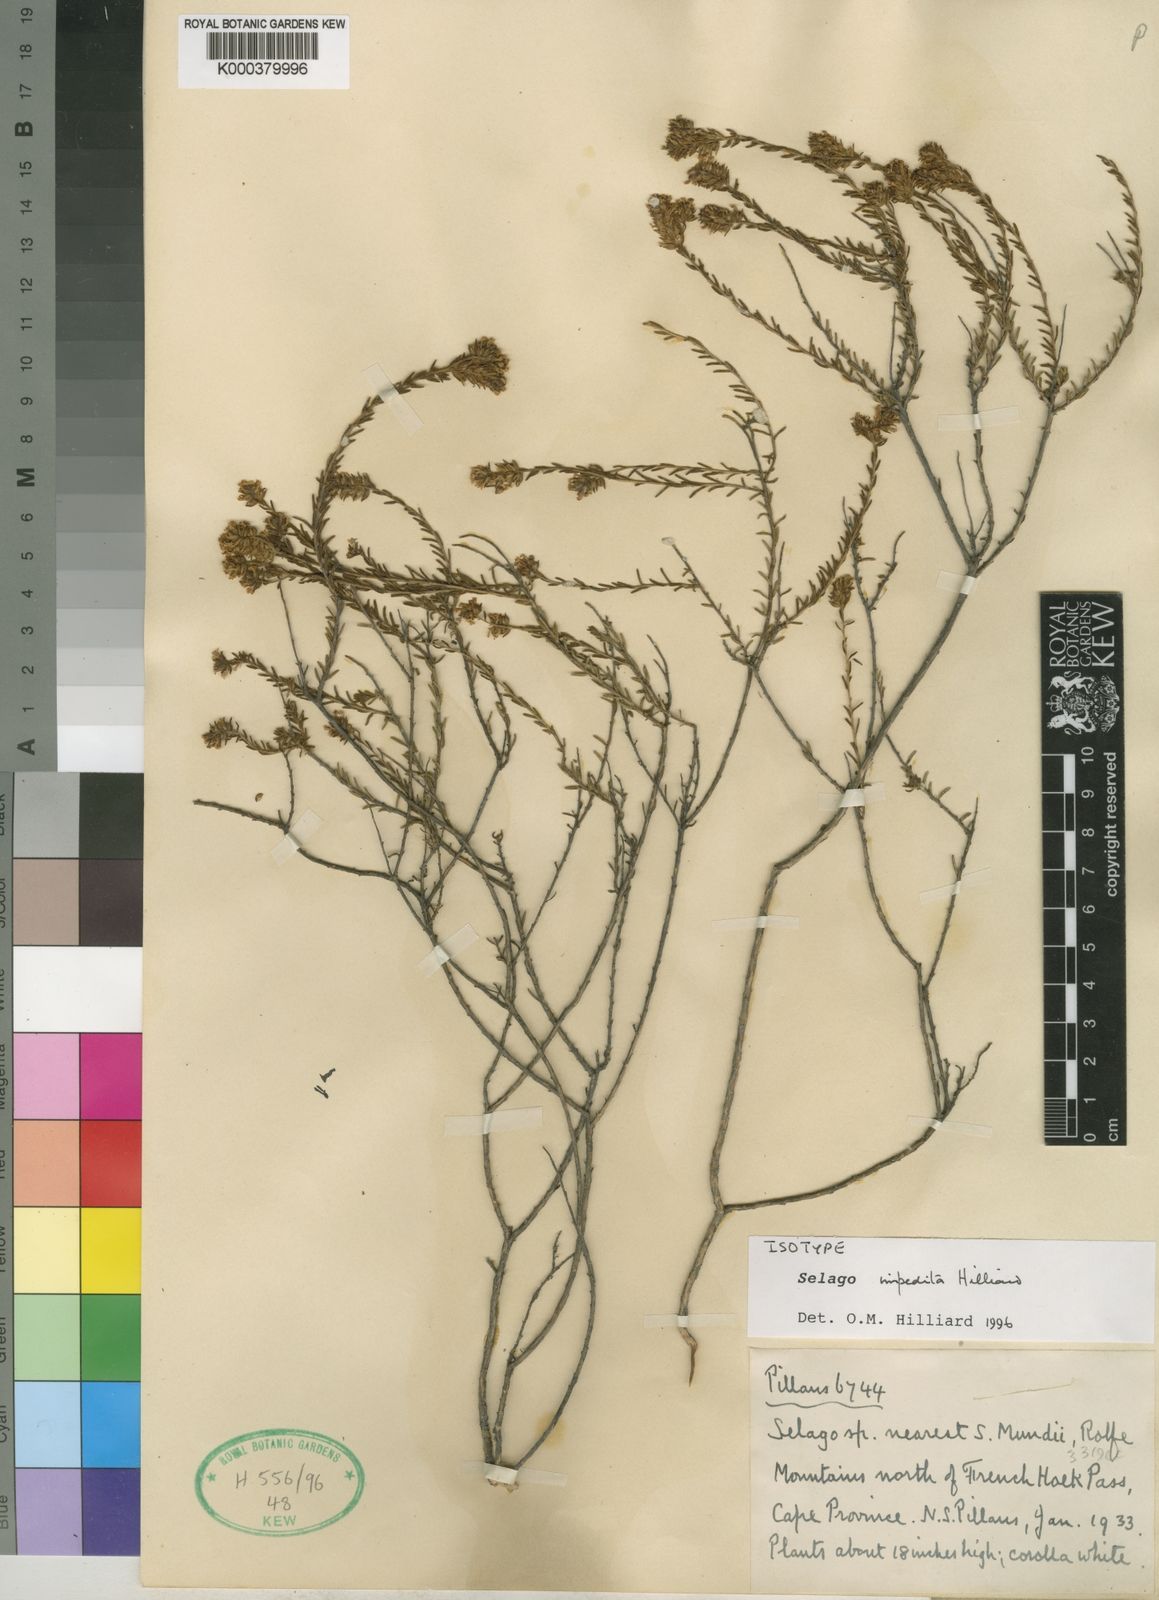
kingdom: Plantae
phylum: Tracheophyta
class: Magnoliopsida
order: Lamiales
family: Scrophulariaceae
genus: Selago
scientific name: Selago impedita
